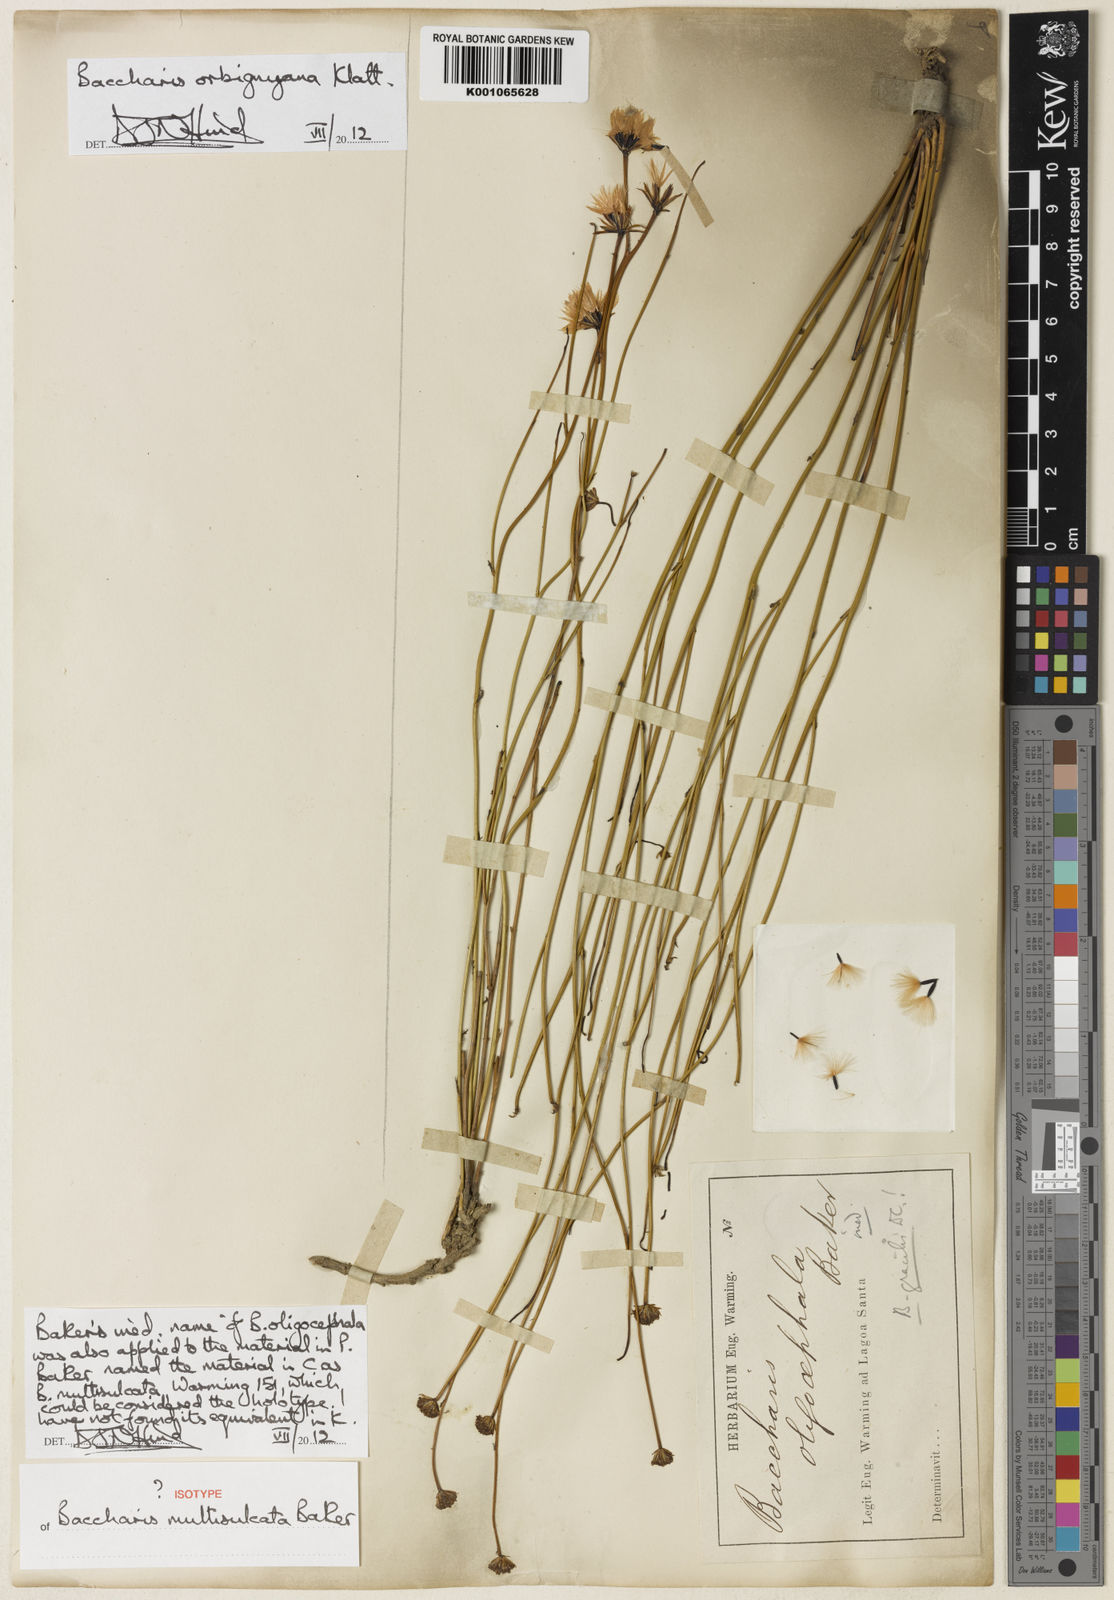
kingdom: Plantae
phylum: Tracheophyta
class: Magnoliopsida
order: Asterales
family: Asteraceae
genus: Baccharis
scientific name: Baccharis orbignyana
